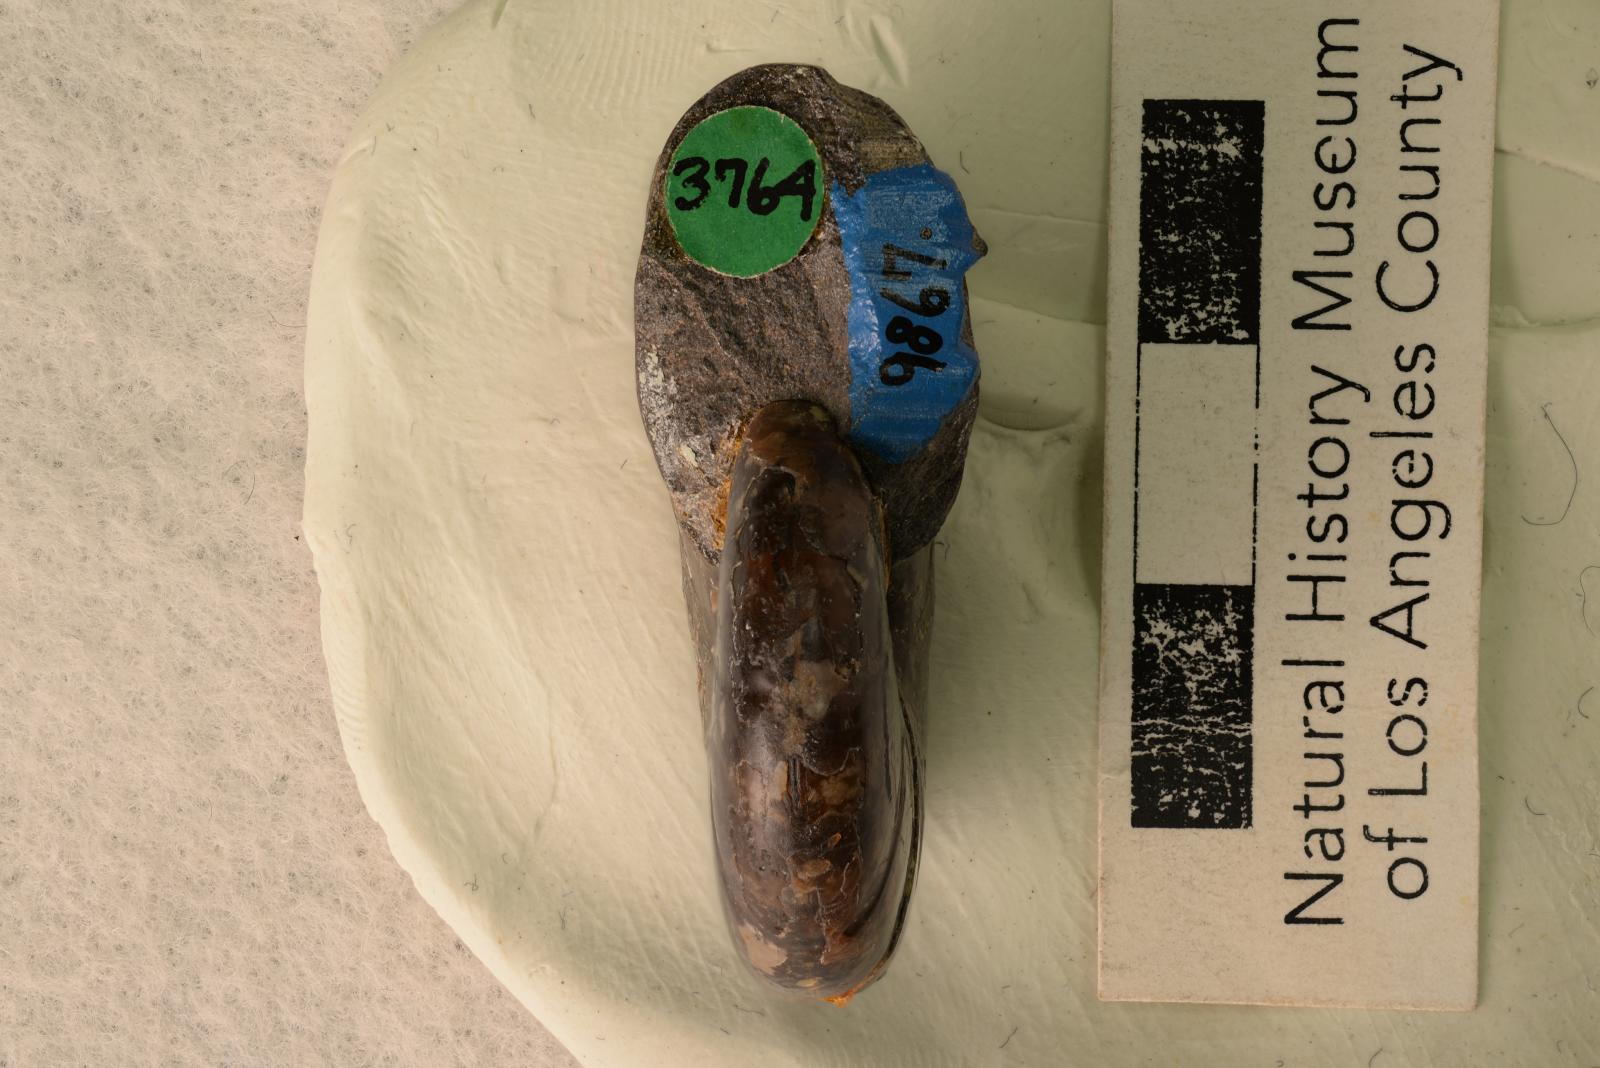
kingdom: Animalia
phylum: Mollusca
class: Cephalopoda
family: Desmoceratidae
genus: Desmoceras
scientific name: Desmoceras barryae
